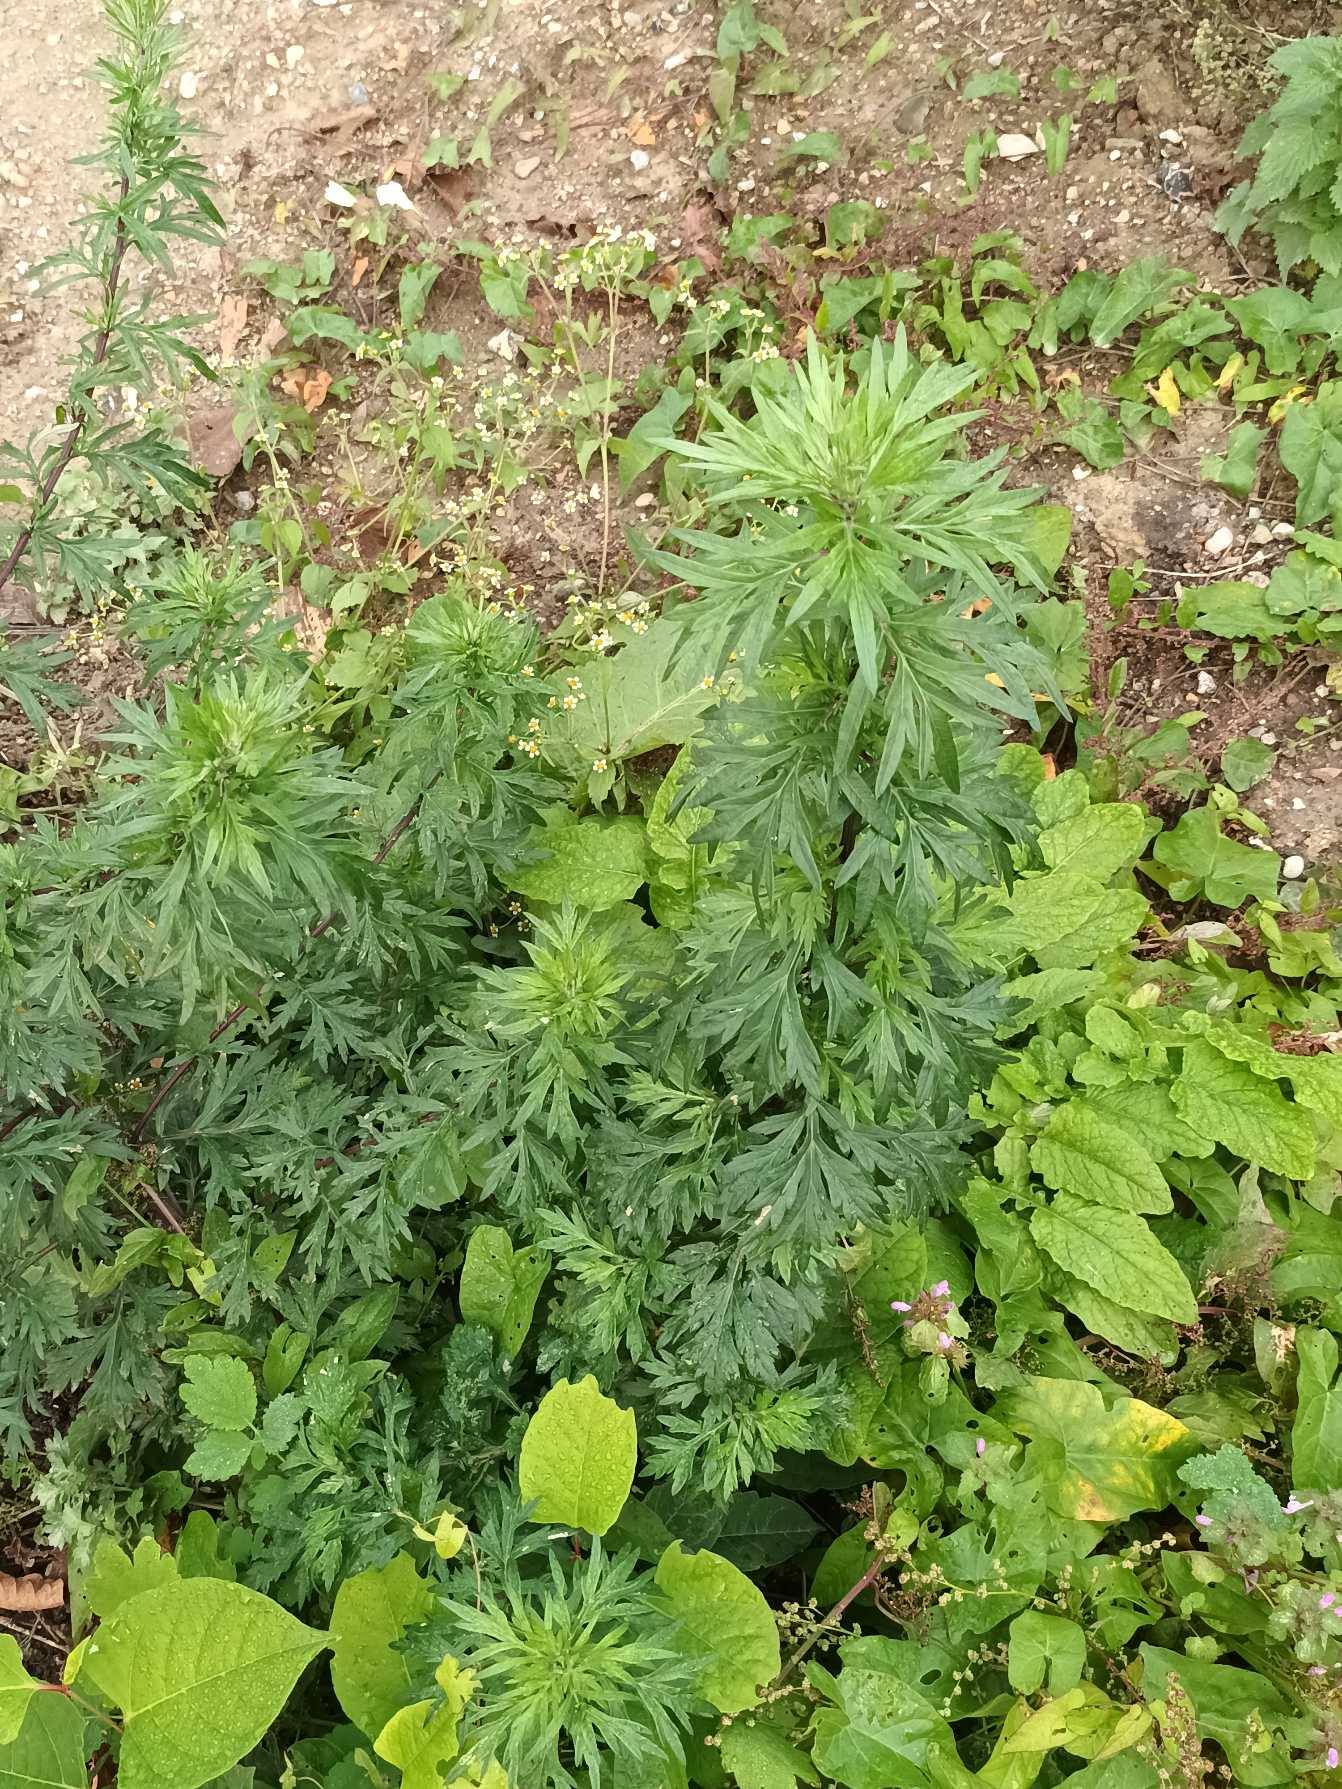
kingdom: Plantae
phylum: Tracheophyta
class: Magnoliopsida
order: Asterales
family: Asteraceae
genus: Artemisia
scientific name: Artemisia vulgaris
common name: Grå-bynke
